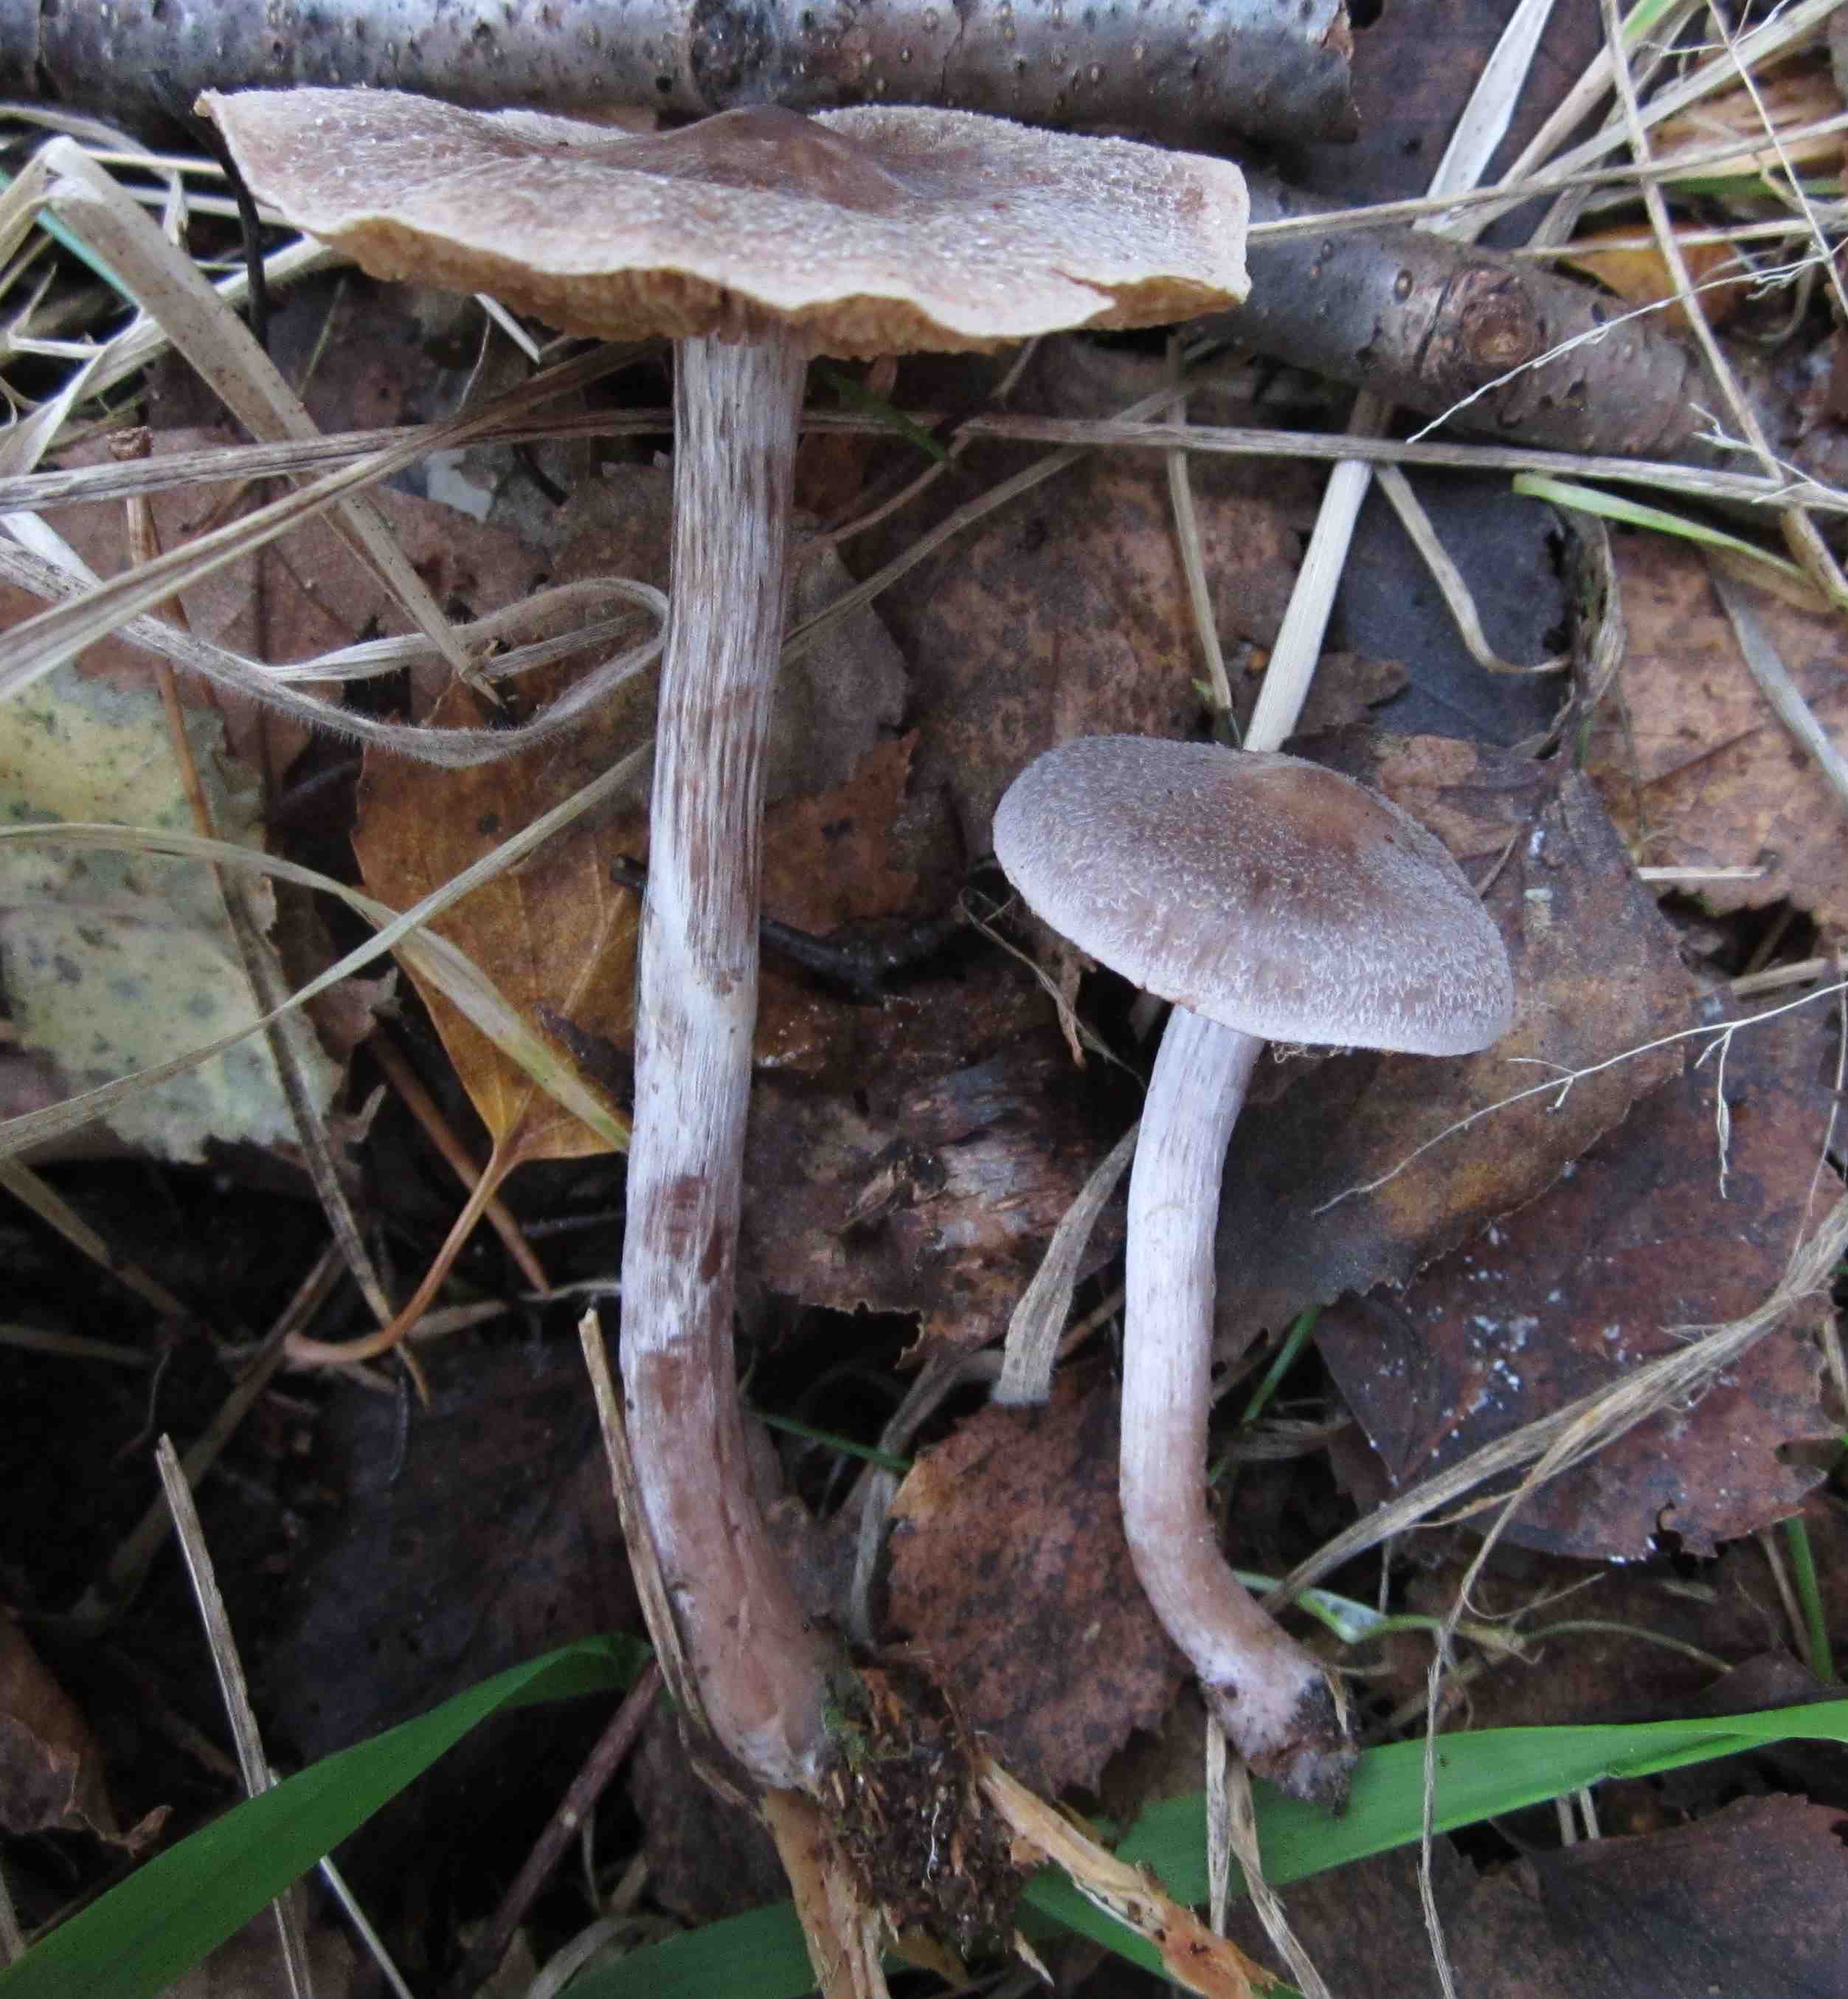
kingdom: Fungi
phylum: Basidiomycota
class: Agaricomycetes
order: Agaricales
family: Cortinariaceae
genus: Cortinarius
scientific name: Cortinarius hemitrichus
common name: hvidfnugget slørhat
